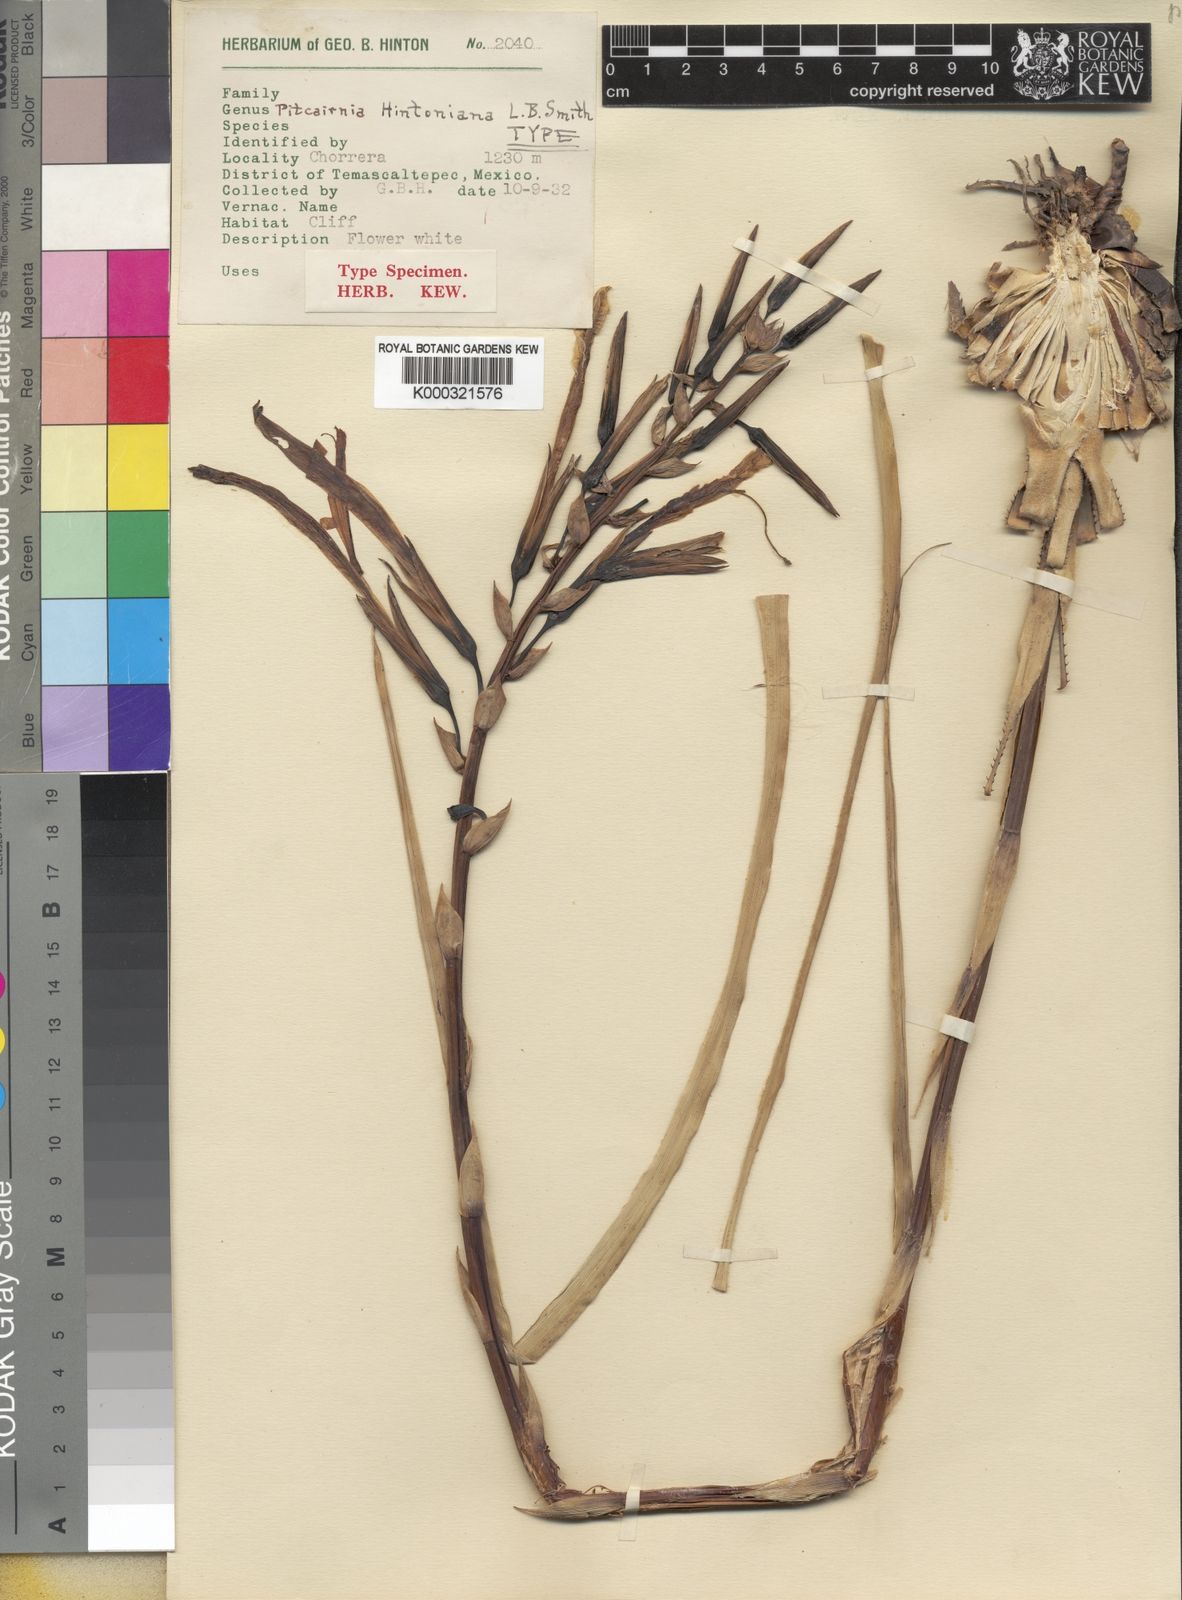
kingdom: Plantae
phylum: Tracheophyta
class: Liliopsida
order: Poales
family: Bromeliaceae
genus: Pitcairnia
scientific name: Pitcairnia hintoniana
